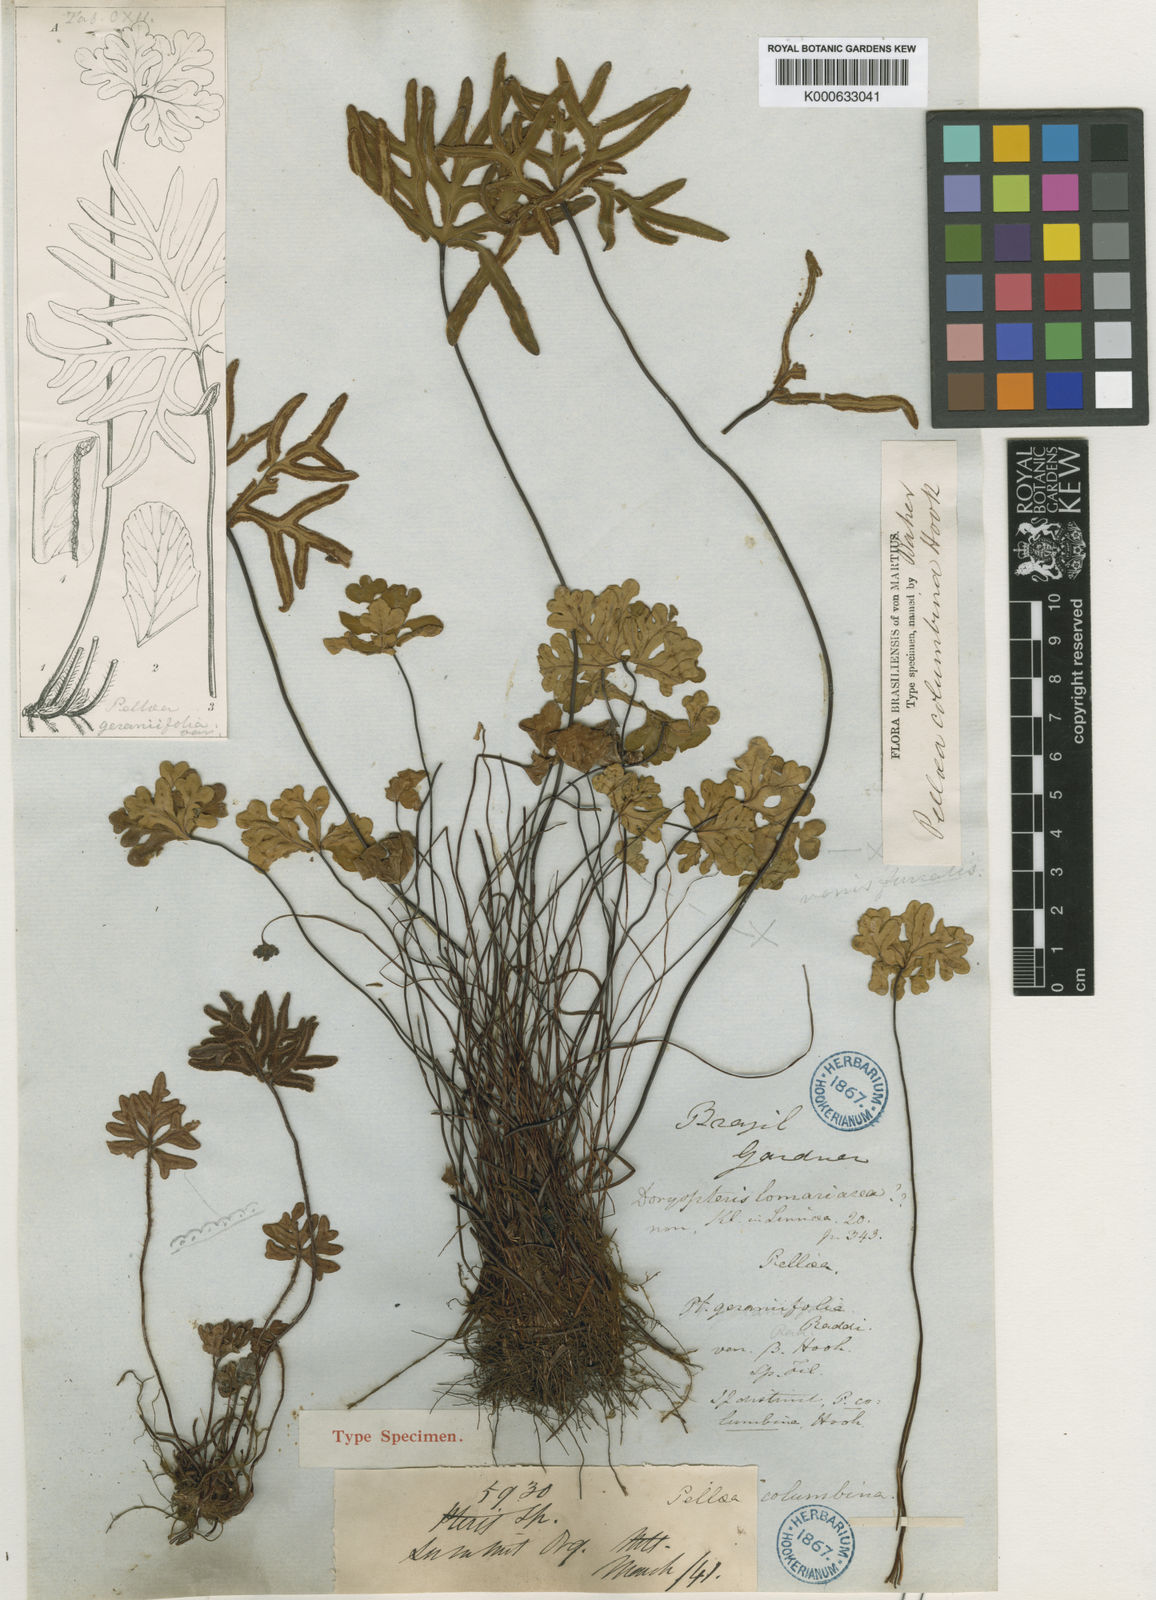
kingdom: Plantae
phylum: Tracheophyta
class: Polypodiopsida
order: Polypodiales
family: Pteridaceae
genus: Doryopteris
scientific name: Doryopteris
